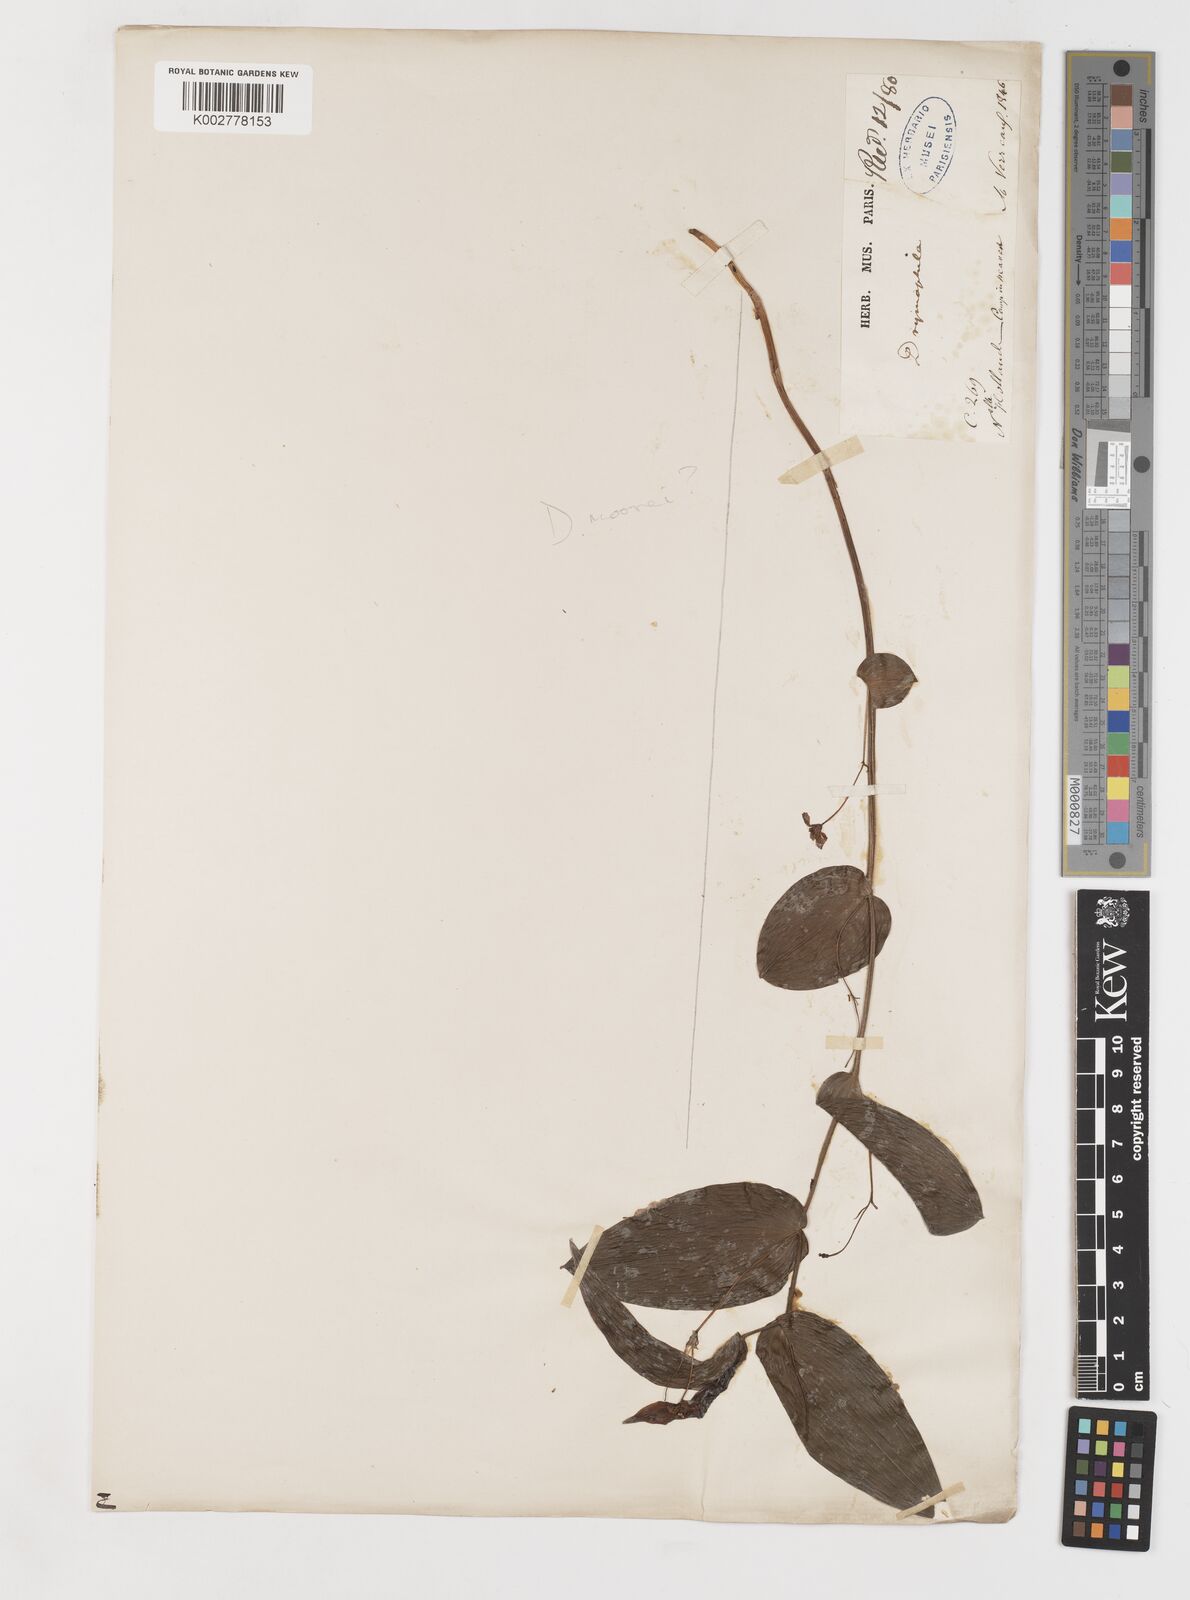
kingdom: Plantae
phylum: Tracheophyta
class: Liliopsida
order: Liliales
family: Alstroemeriaceae
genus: Drymophila
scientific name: Drymophila moorei
